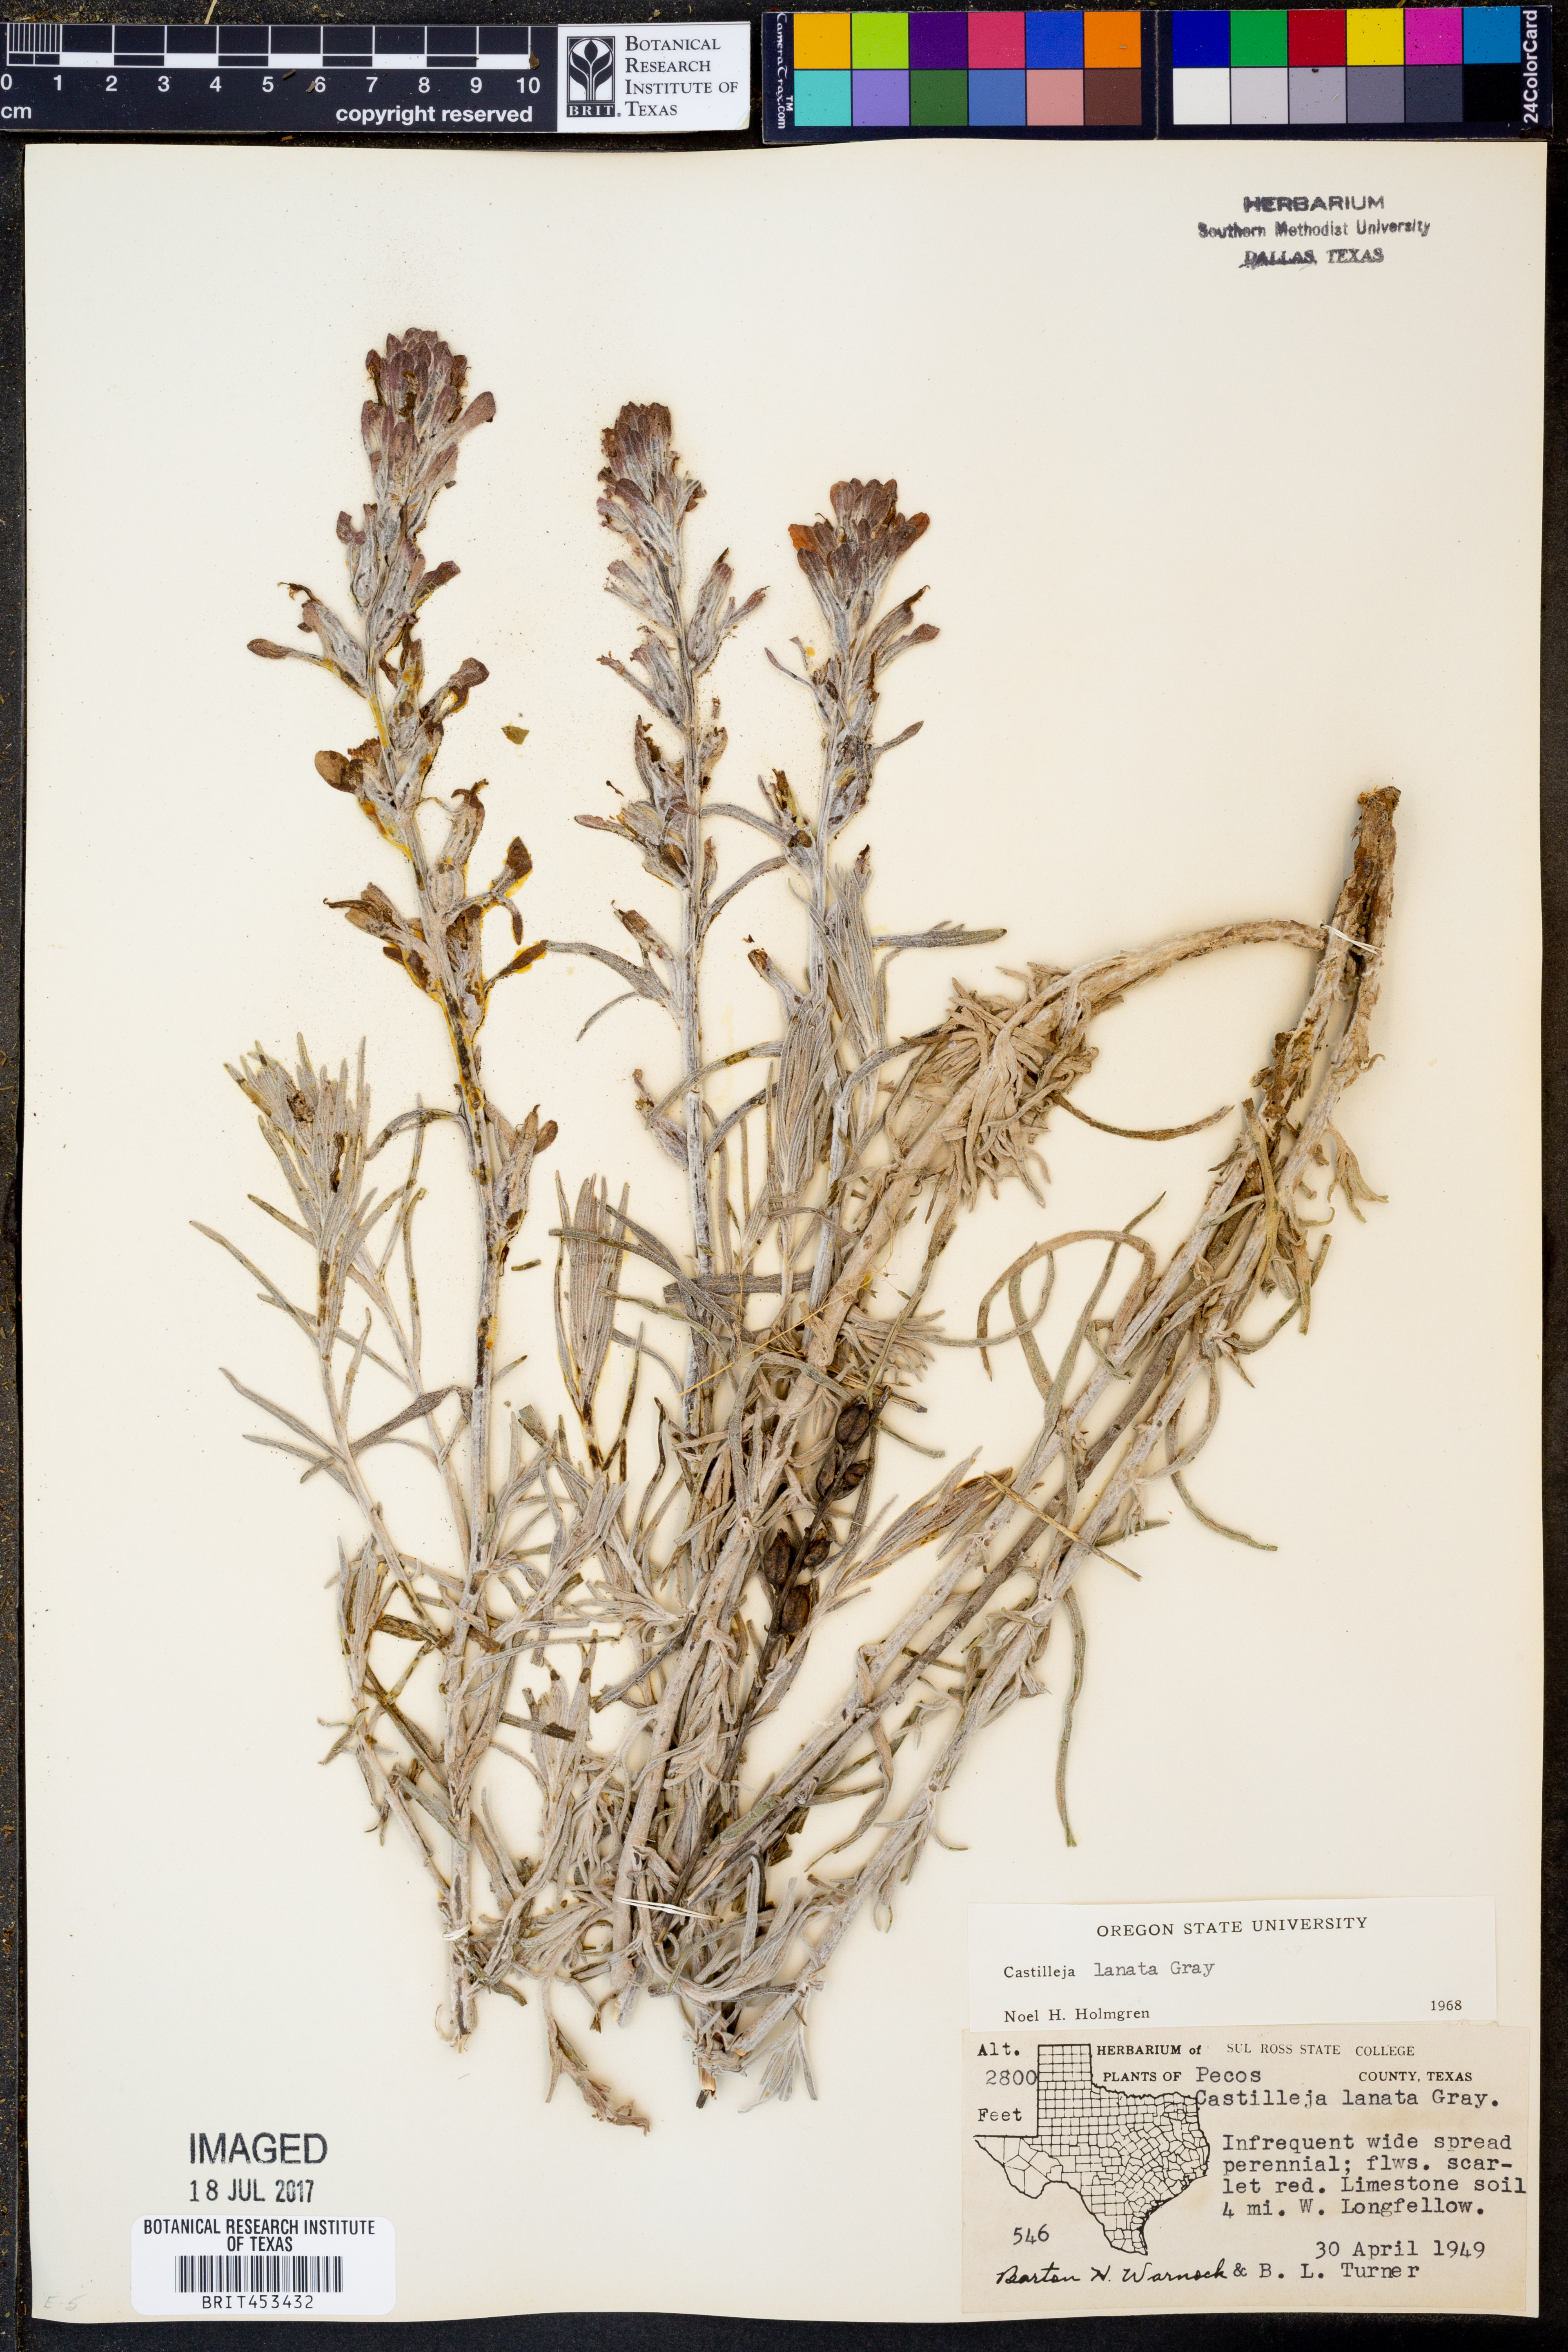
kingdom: Plantae
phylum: Tracheophyta
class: Magnoliopsida
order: Lamiales
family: Orobanchaceae
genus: Castilleja
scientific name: Castilleja lanata
